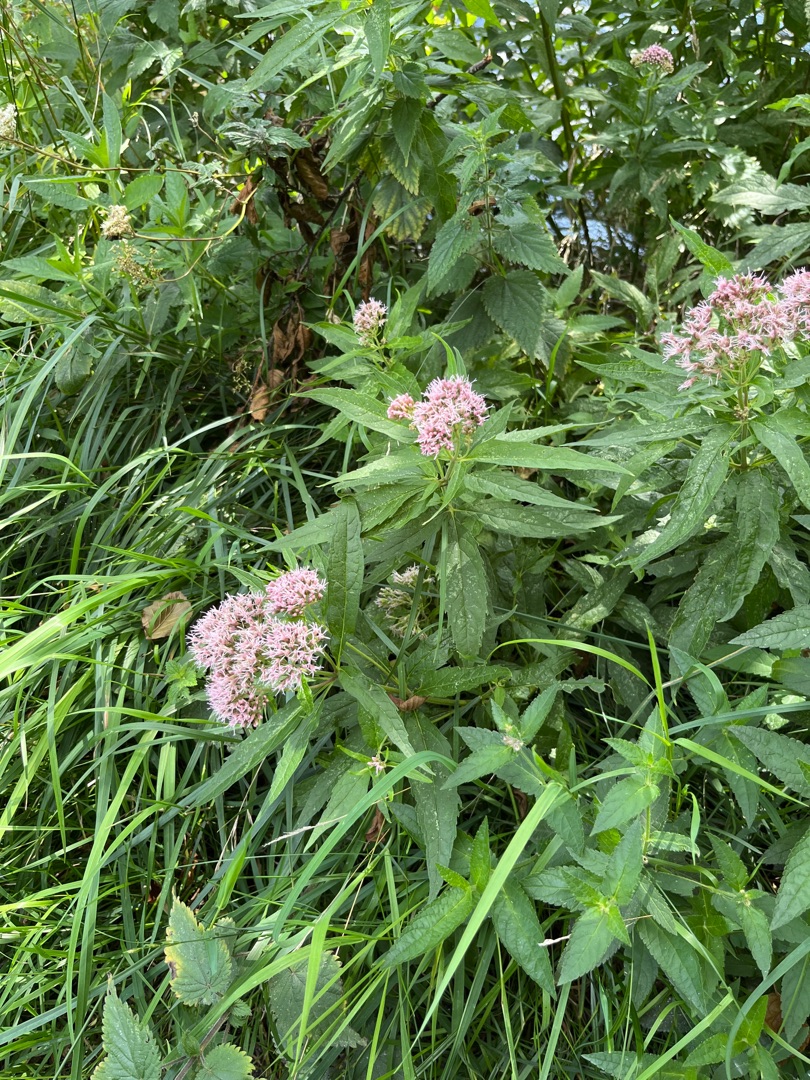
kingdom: Plantae
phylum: Tracheophyta
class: Magnoliopsida
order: Asterales
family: Asteraceae
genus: Eupatorium
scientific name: Eupatorium cannabinum
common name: Hjortetrøst
